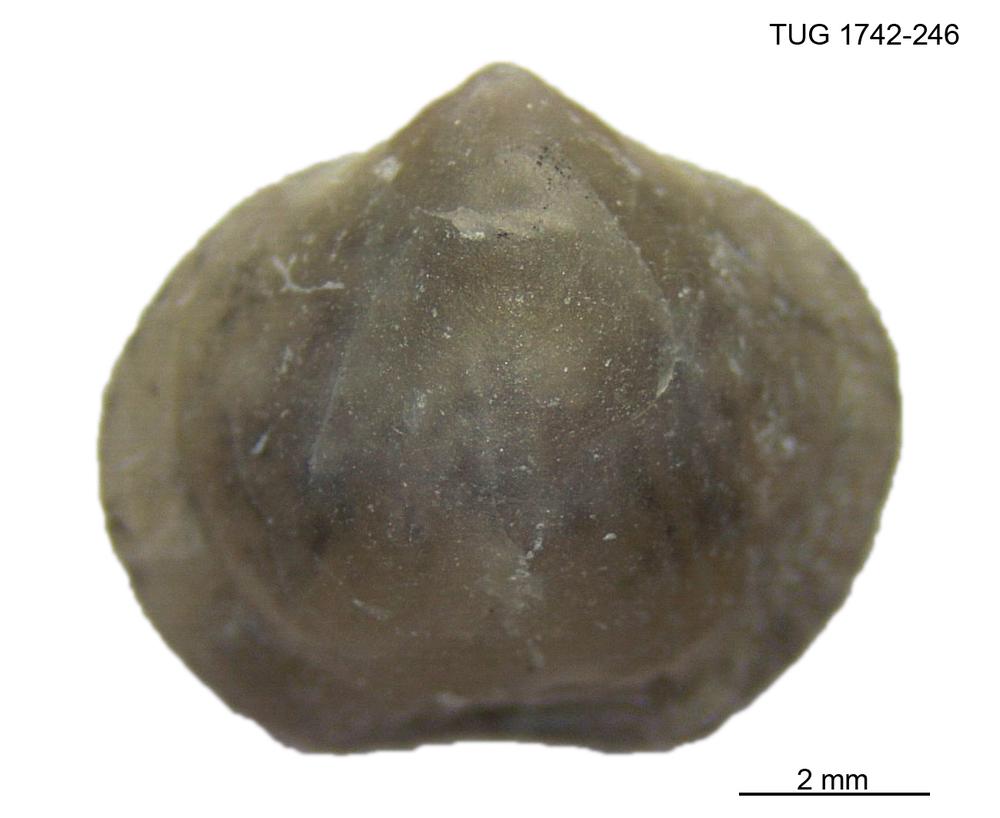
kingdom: Animalia
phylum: Brachiopoda
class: Rhynchonellata
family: Anazygidae
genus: Pentlandella
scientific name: Pentlandella
